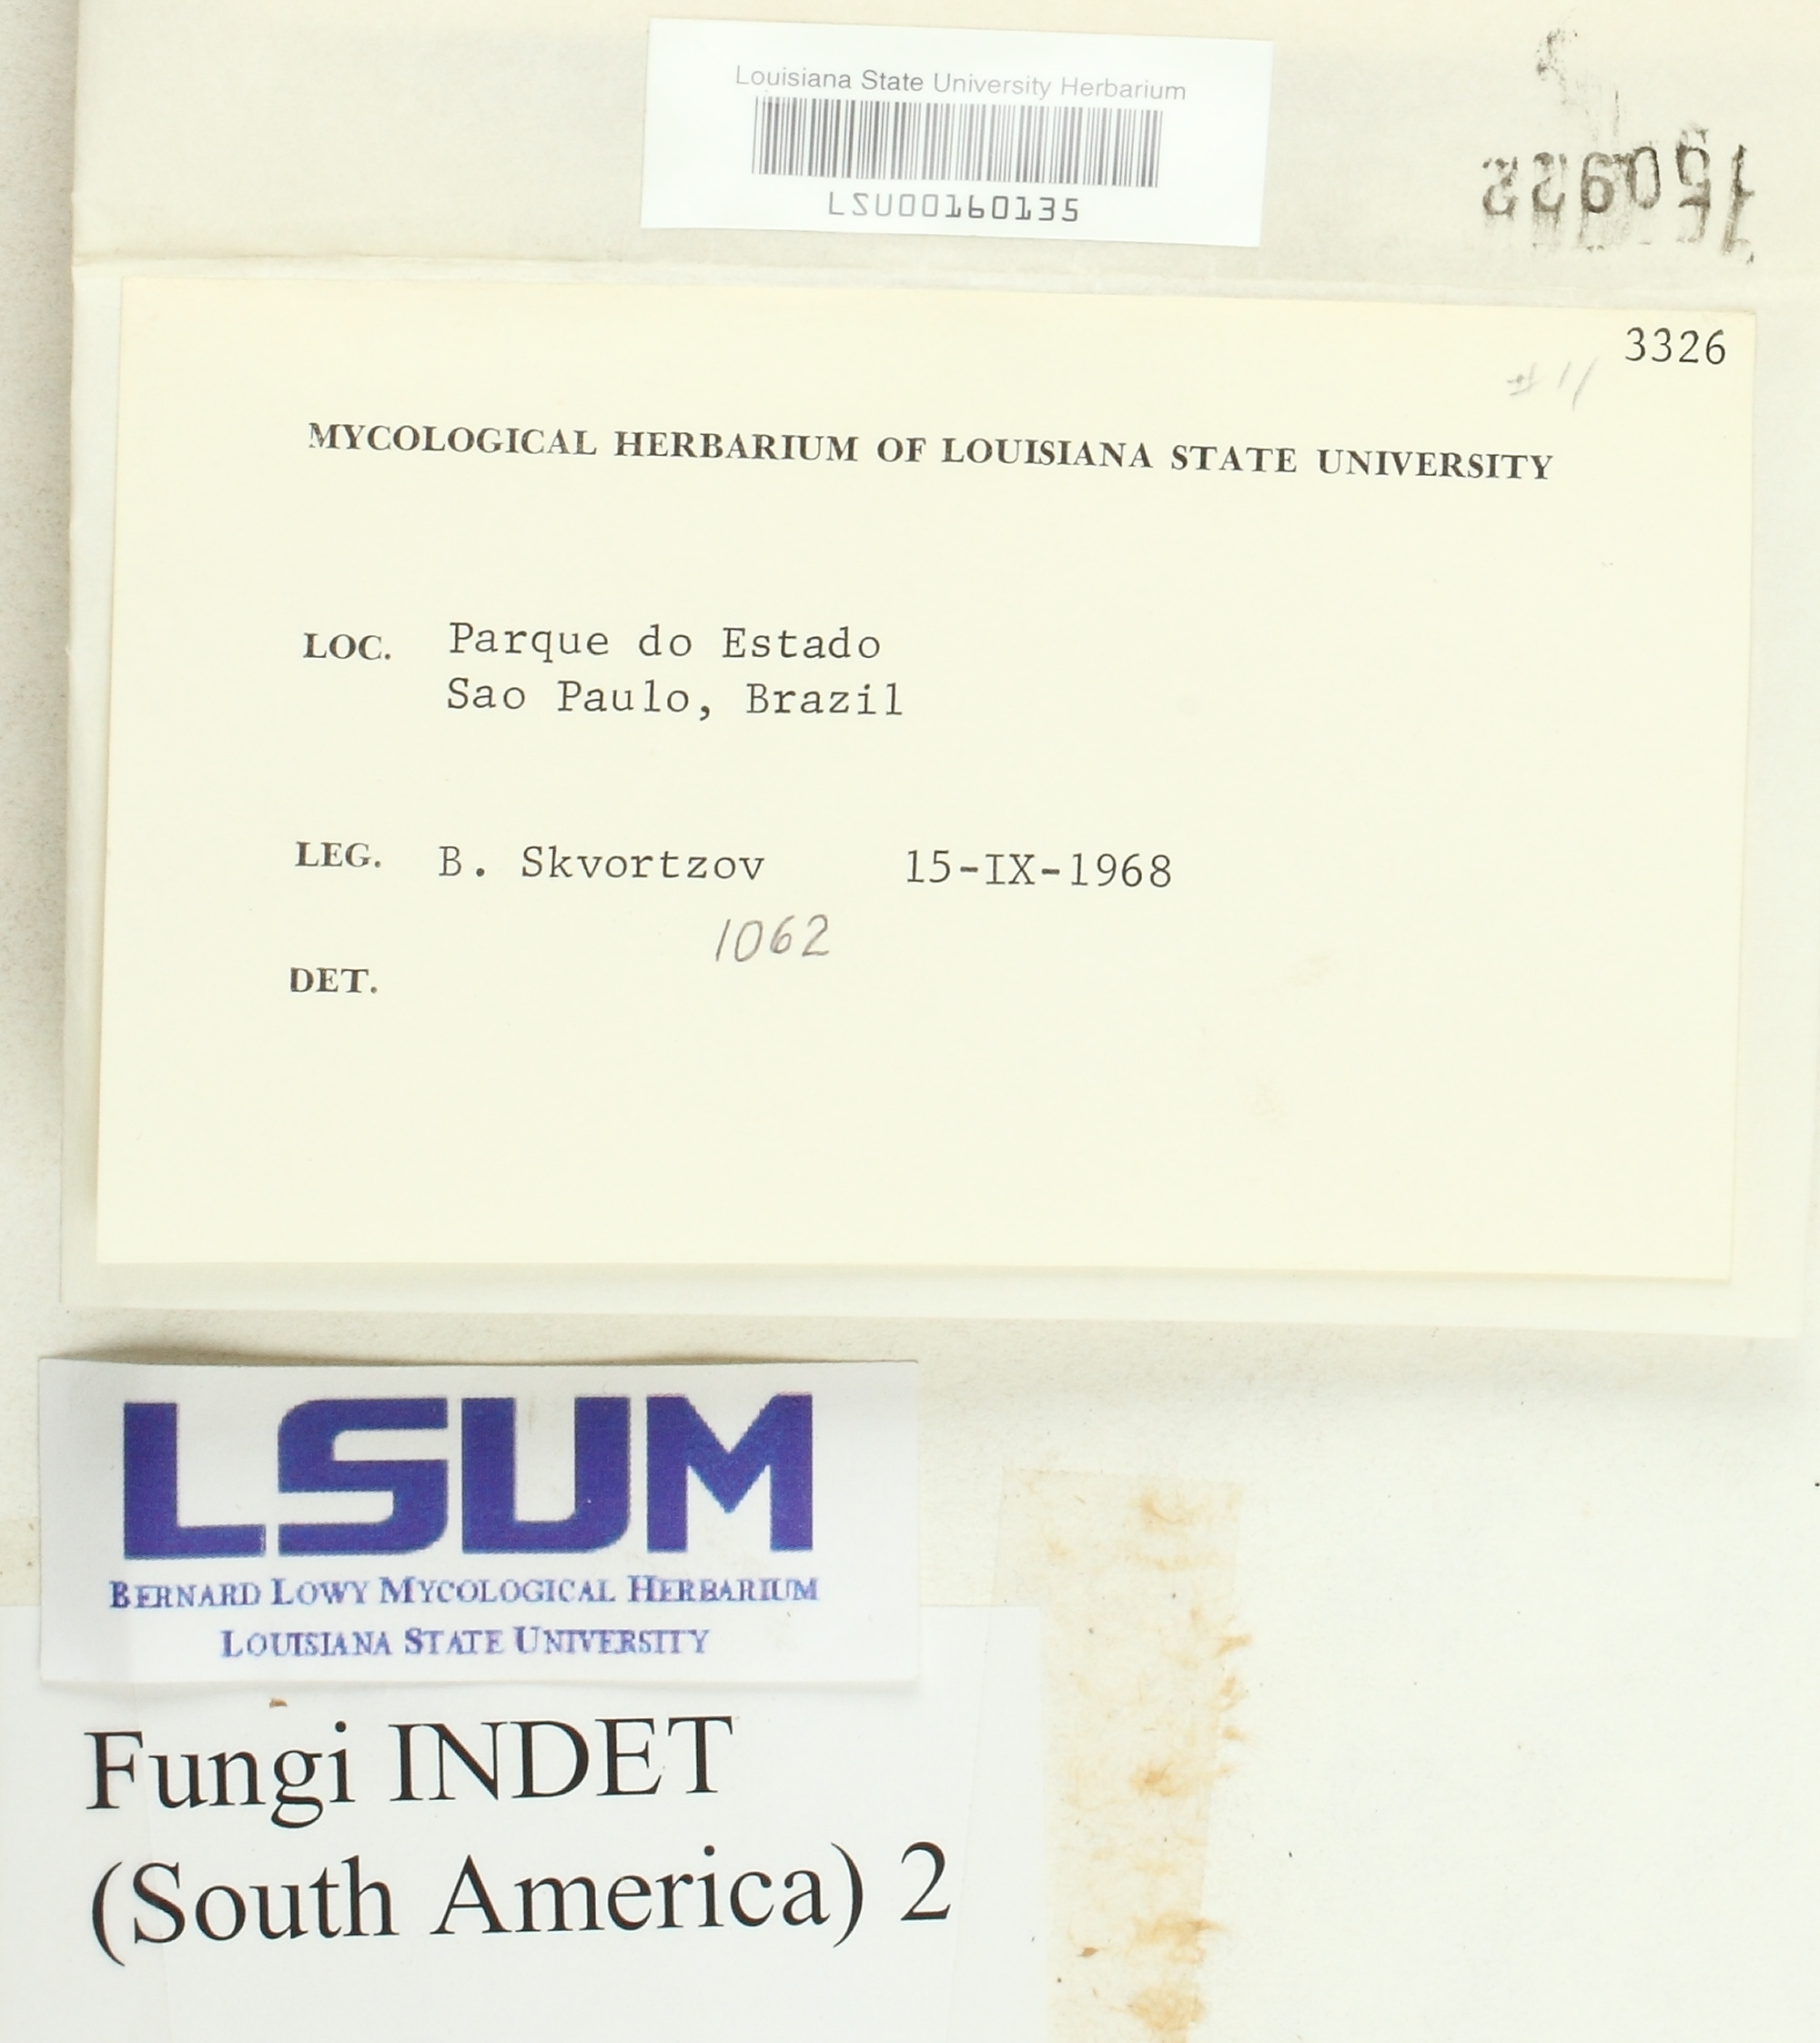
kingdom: Fungi
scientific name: Fungi
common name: Fungi
